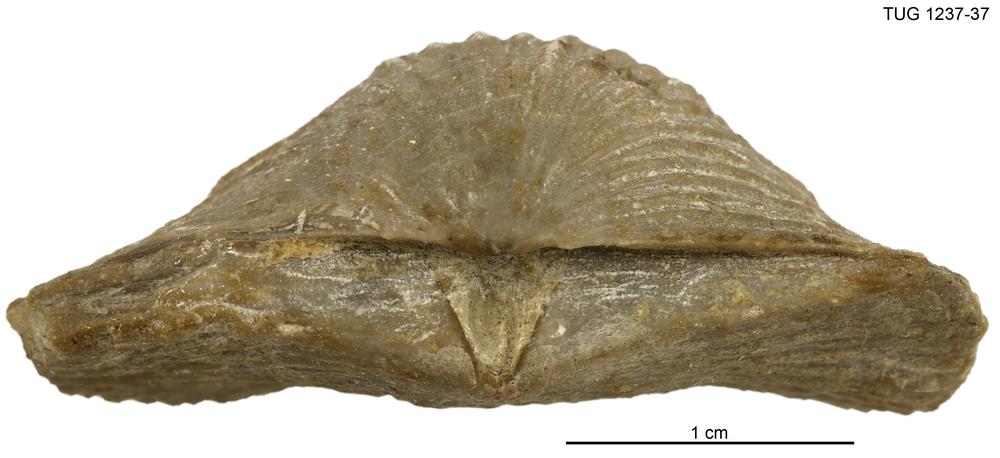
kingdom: Animalia
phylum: Brachiopoda
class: Rhynchonellata
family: Plaesiomyidae
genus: Plaesiomys
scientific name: Plaesiomys saxbiana
